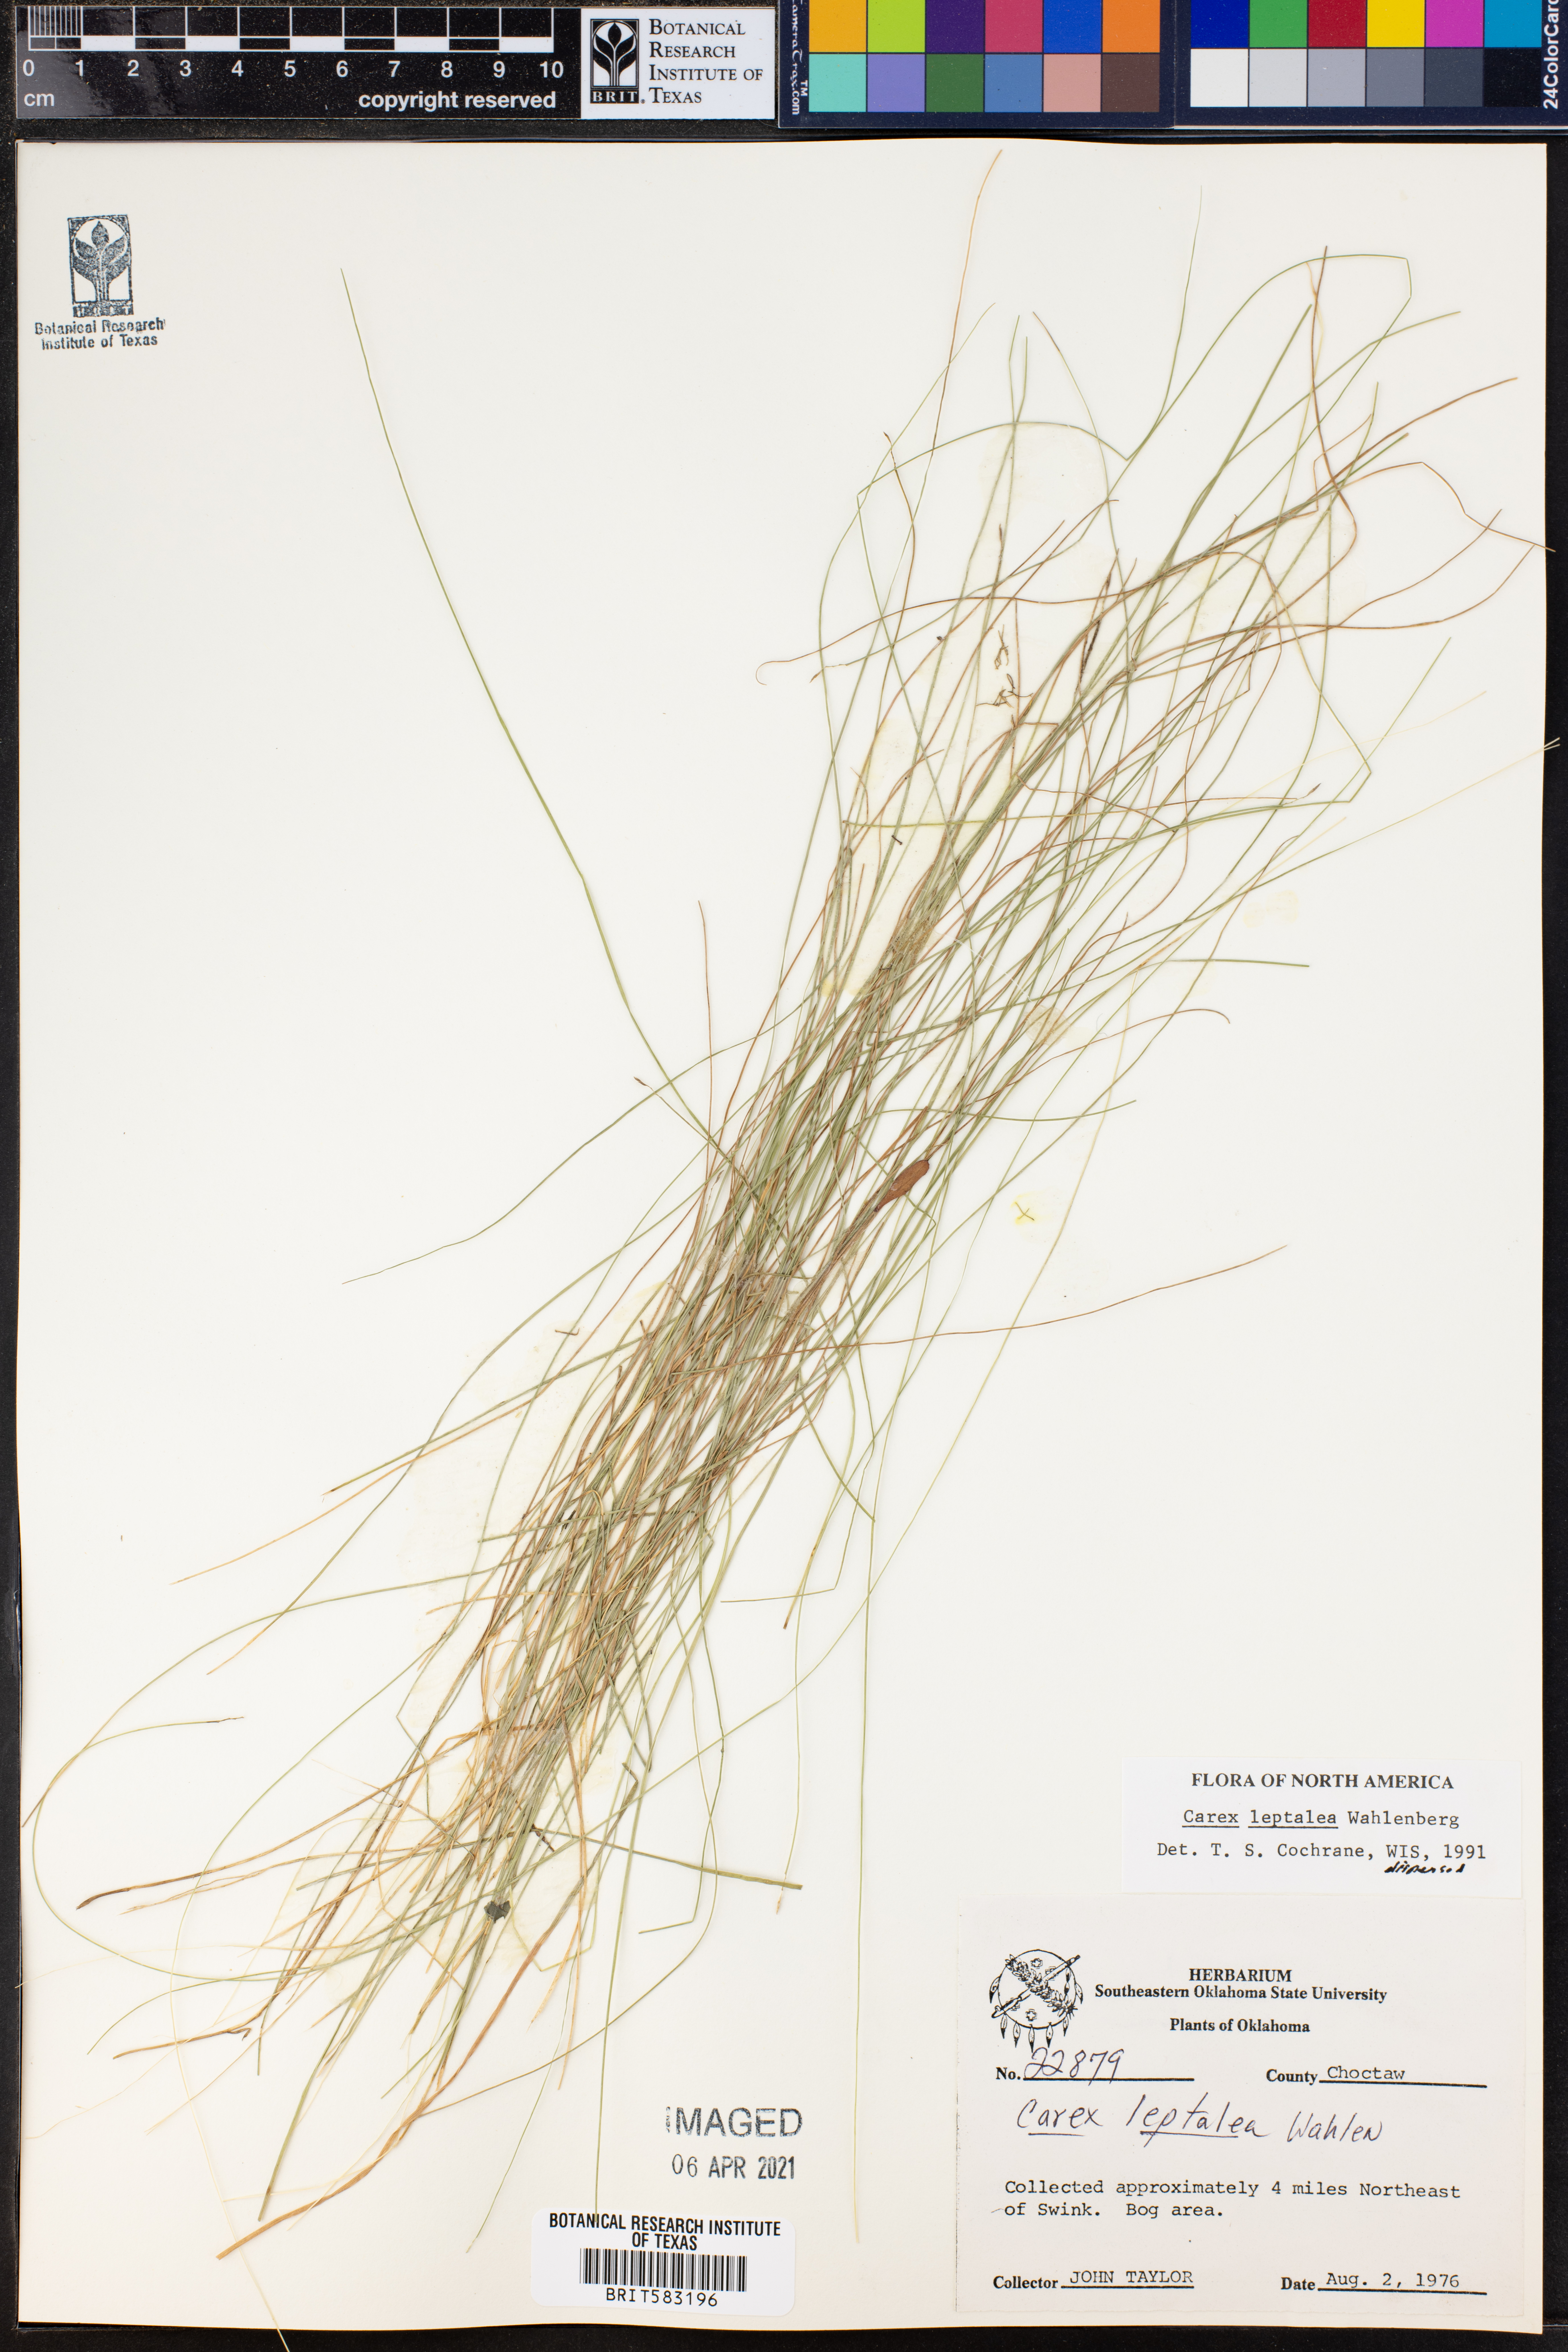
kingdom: Plantae
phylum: Tracheophyta
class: Liliopsida
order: Poales
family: Cyperaceae
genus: Carex
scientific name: Carex leptalea
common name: Bristly-stalked sedge
